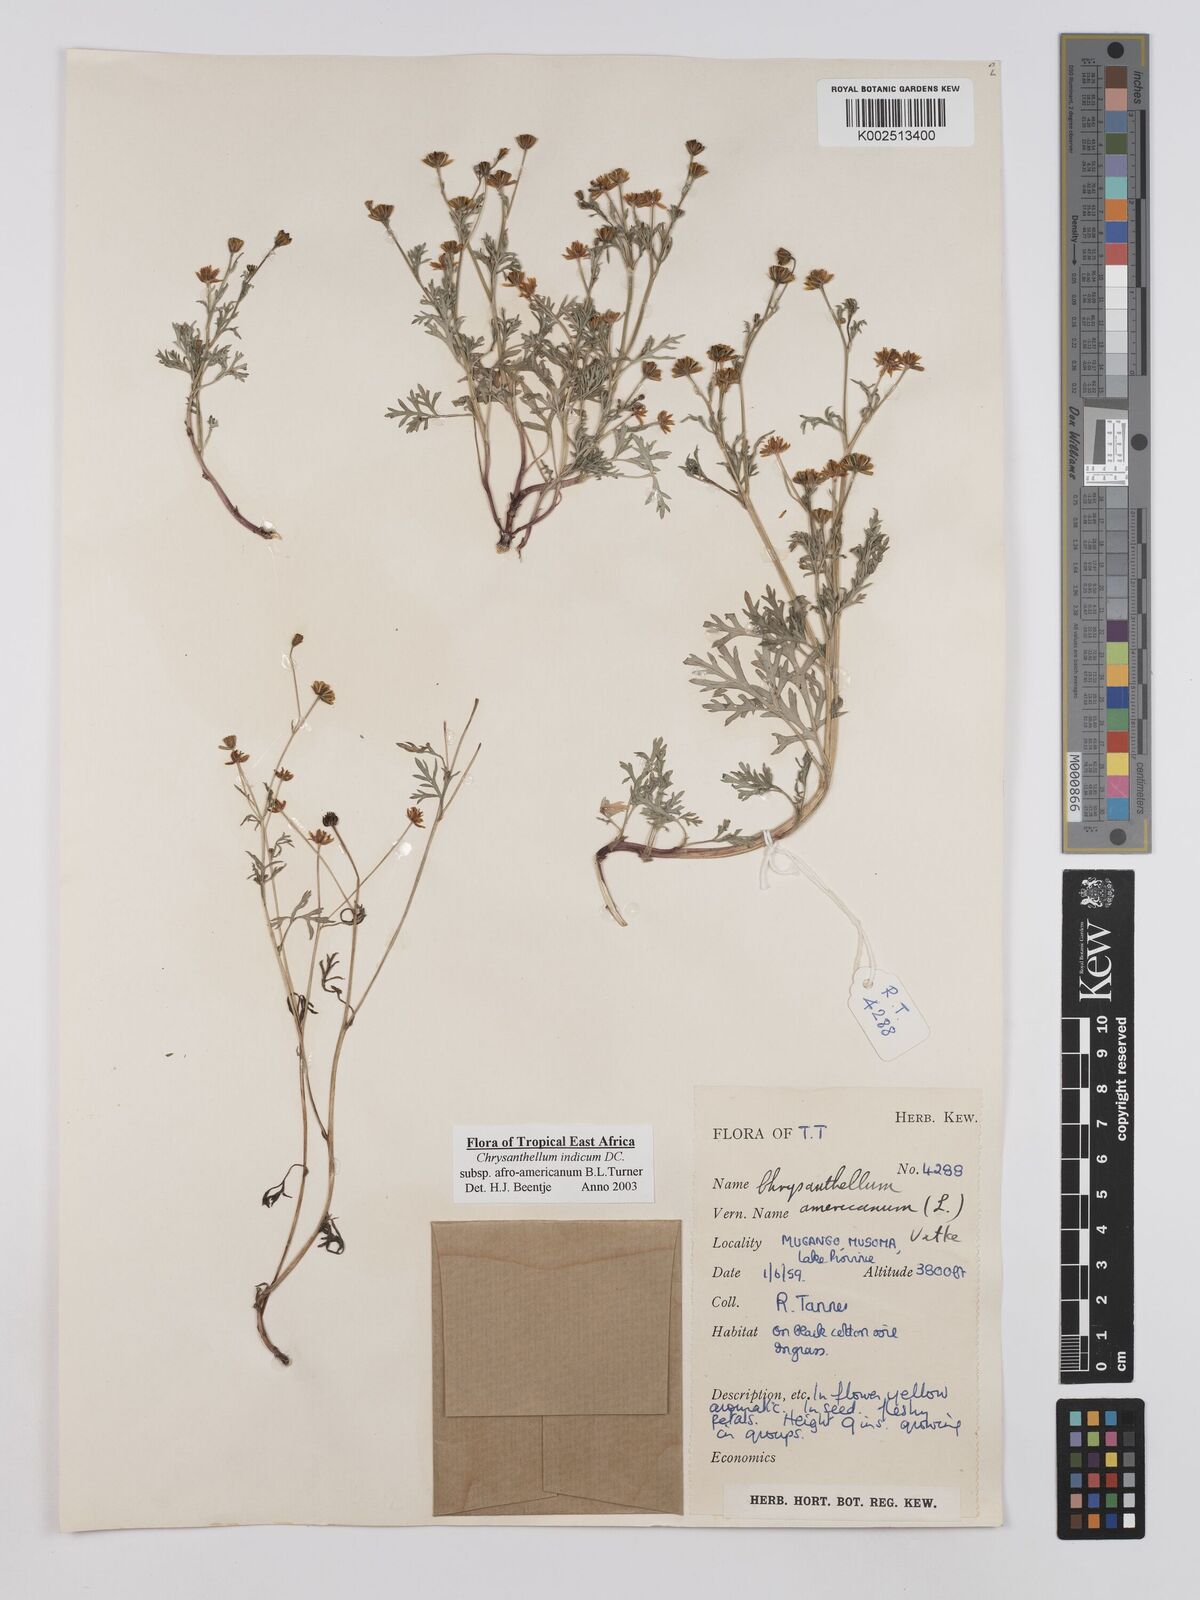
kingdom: Plantae
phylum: Tracheophyta
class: Magnoliopsida
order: Asterales
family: Asteraceae
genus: Chrysanthellum
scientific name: Chrysanthellum indicum
